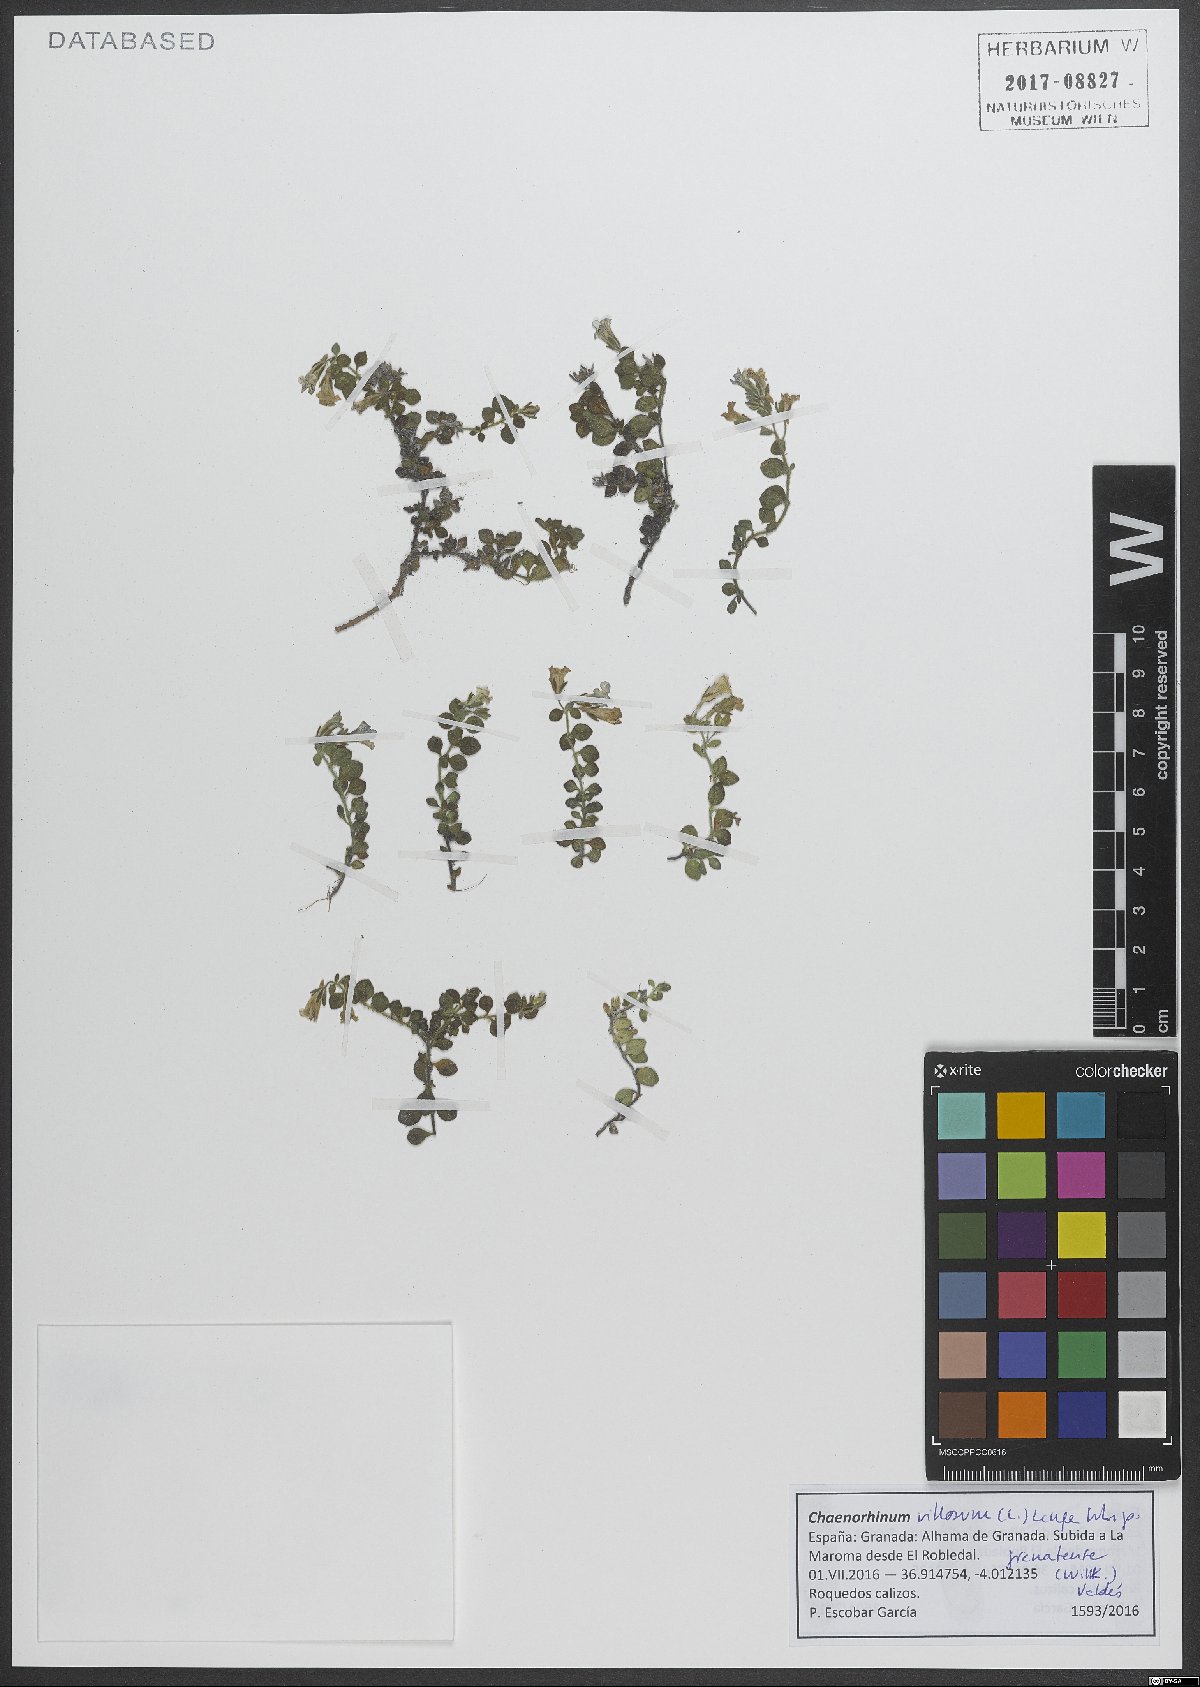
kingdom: Plantae
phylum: Tracheophyta
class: Magnoliopsida
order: Lamiales
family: Plantaginaceae
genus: Chaenorhinum
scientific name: Chaenorhinum villosum
